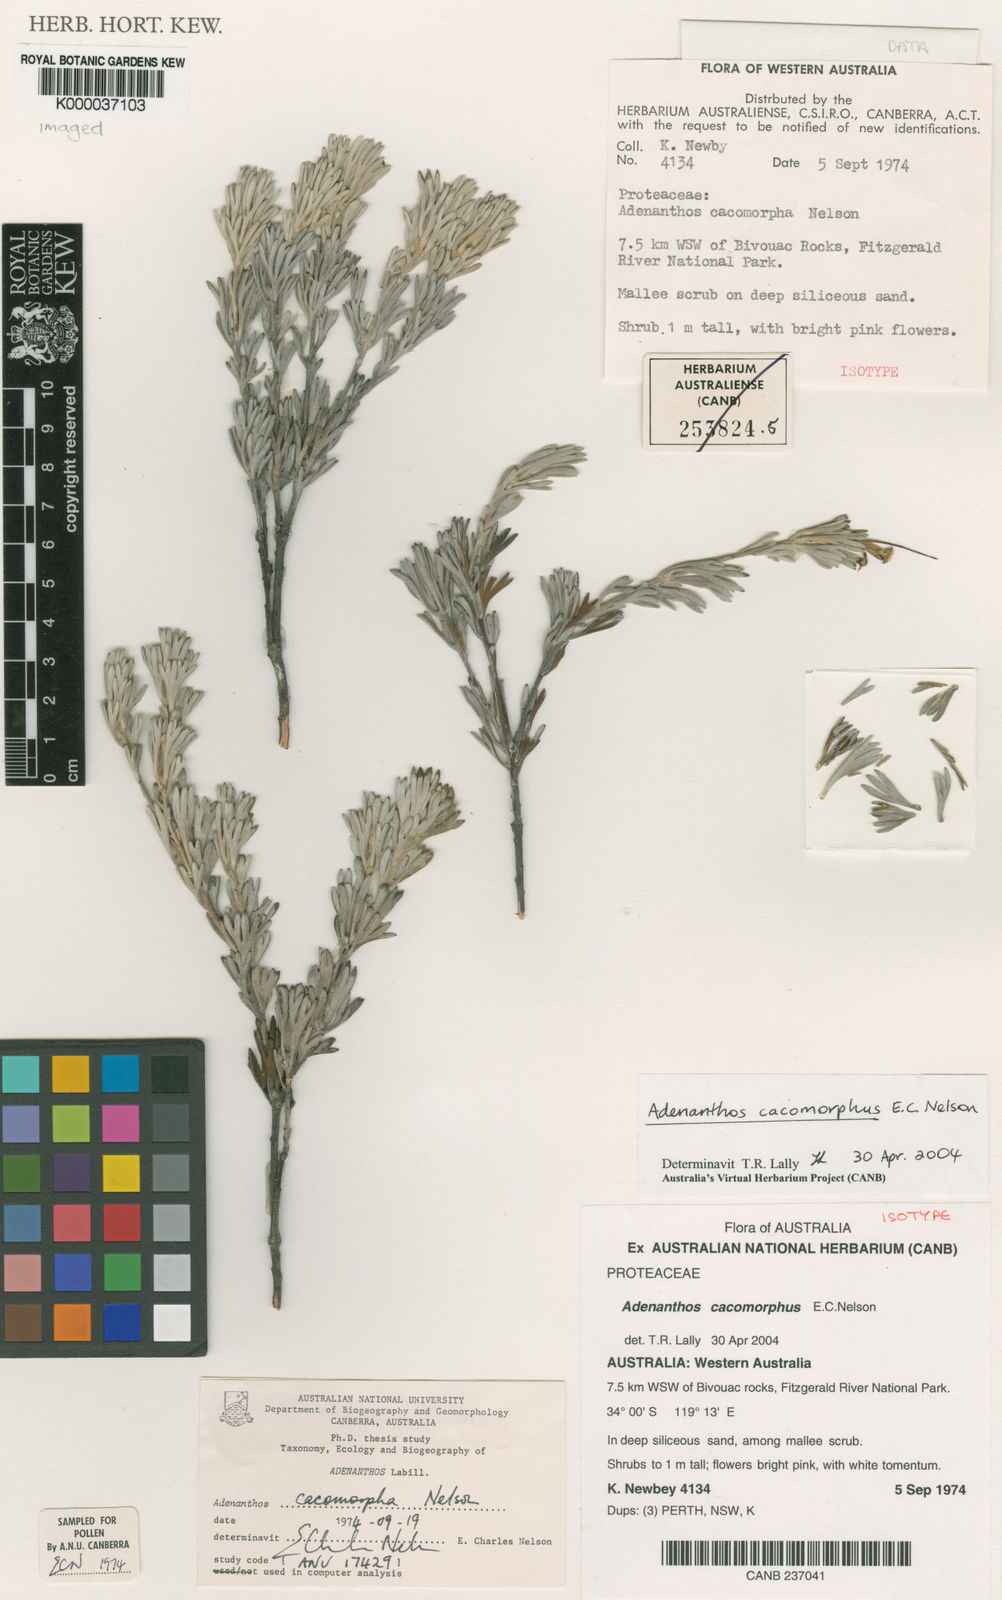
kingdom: Plantae
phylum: Tracheophyta
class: Magnoliopsida
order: Proteales
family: Proteaceae
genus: Adenanthos
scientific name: Adenanthos cacomorphus
